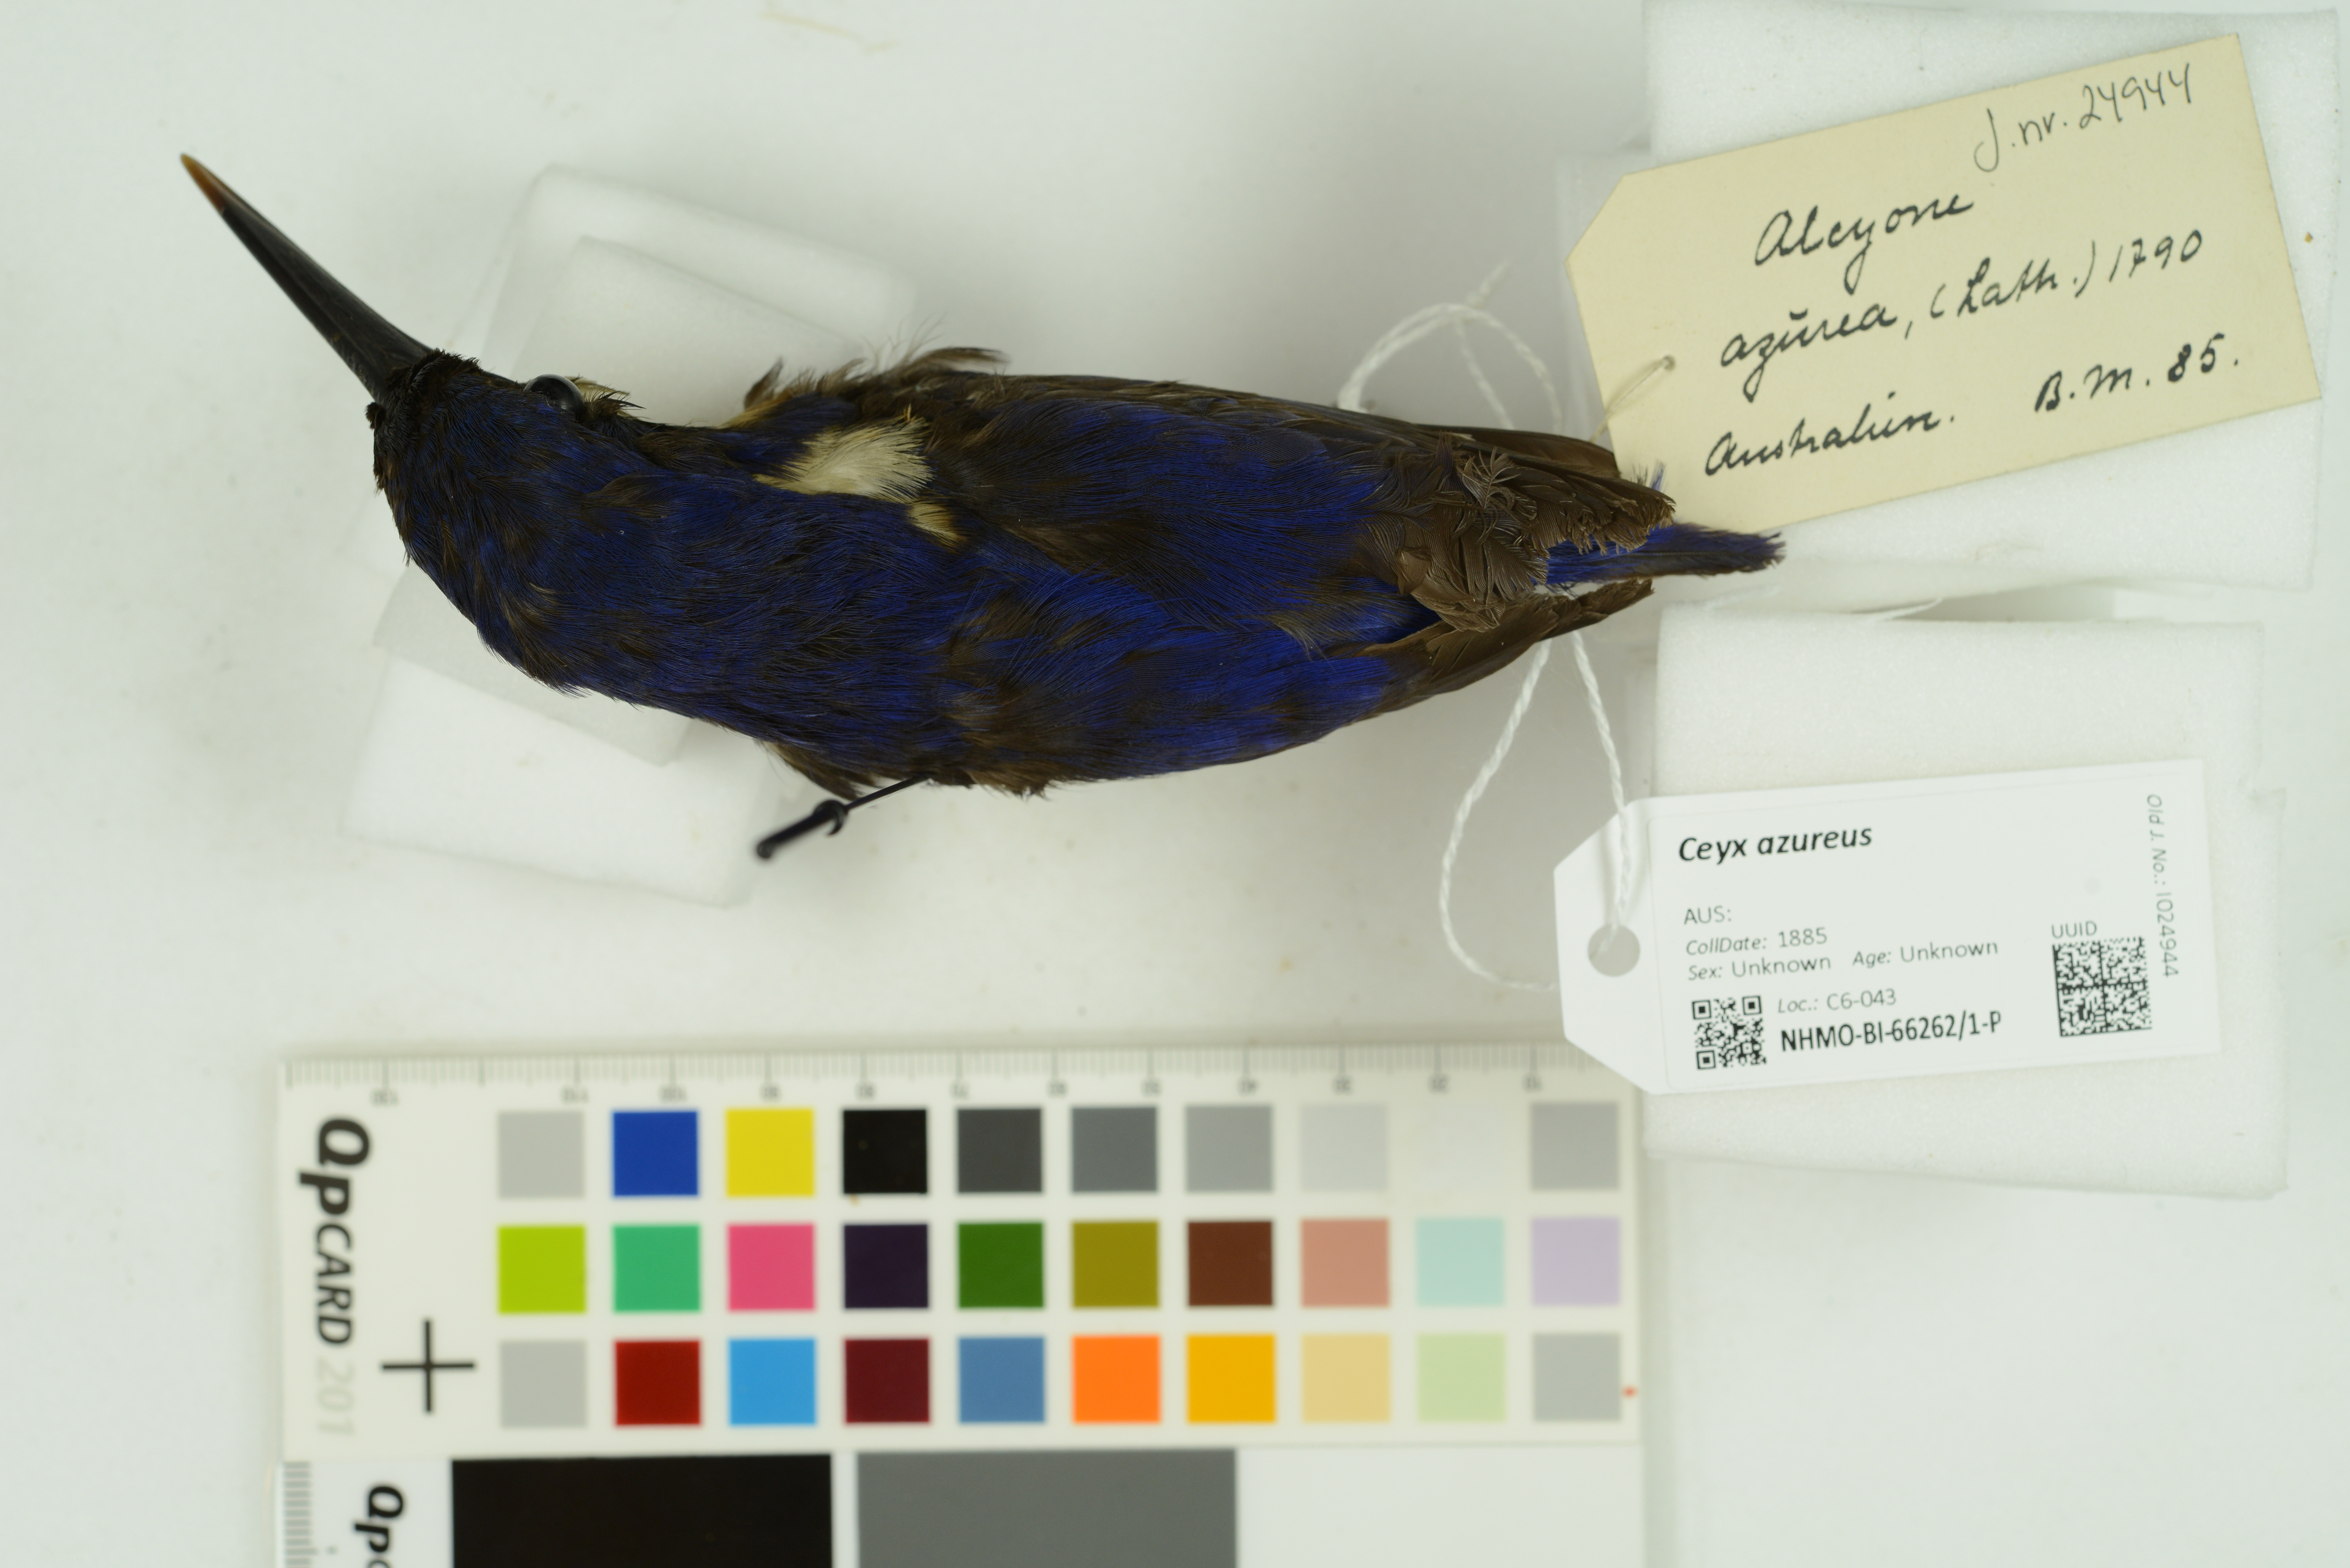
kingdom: Animalia
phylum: Chordata
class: Aves
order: Coraciiformes
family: Alcedinidae
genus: Ceyx
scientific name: Ceyx azureus
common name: Azure kingfisher
